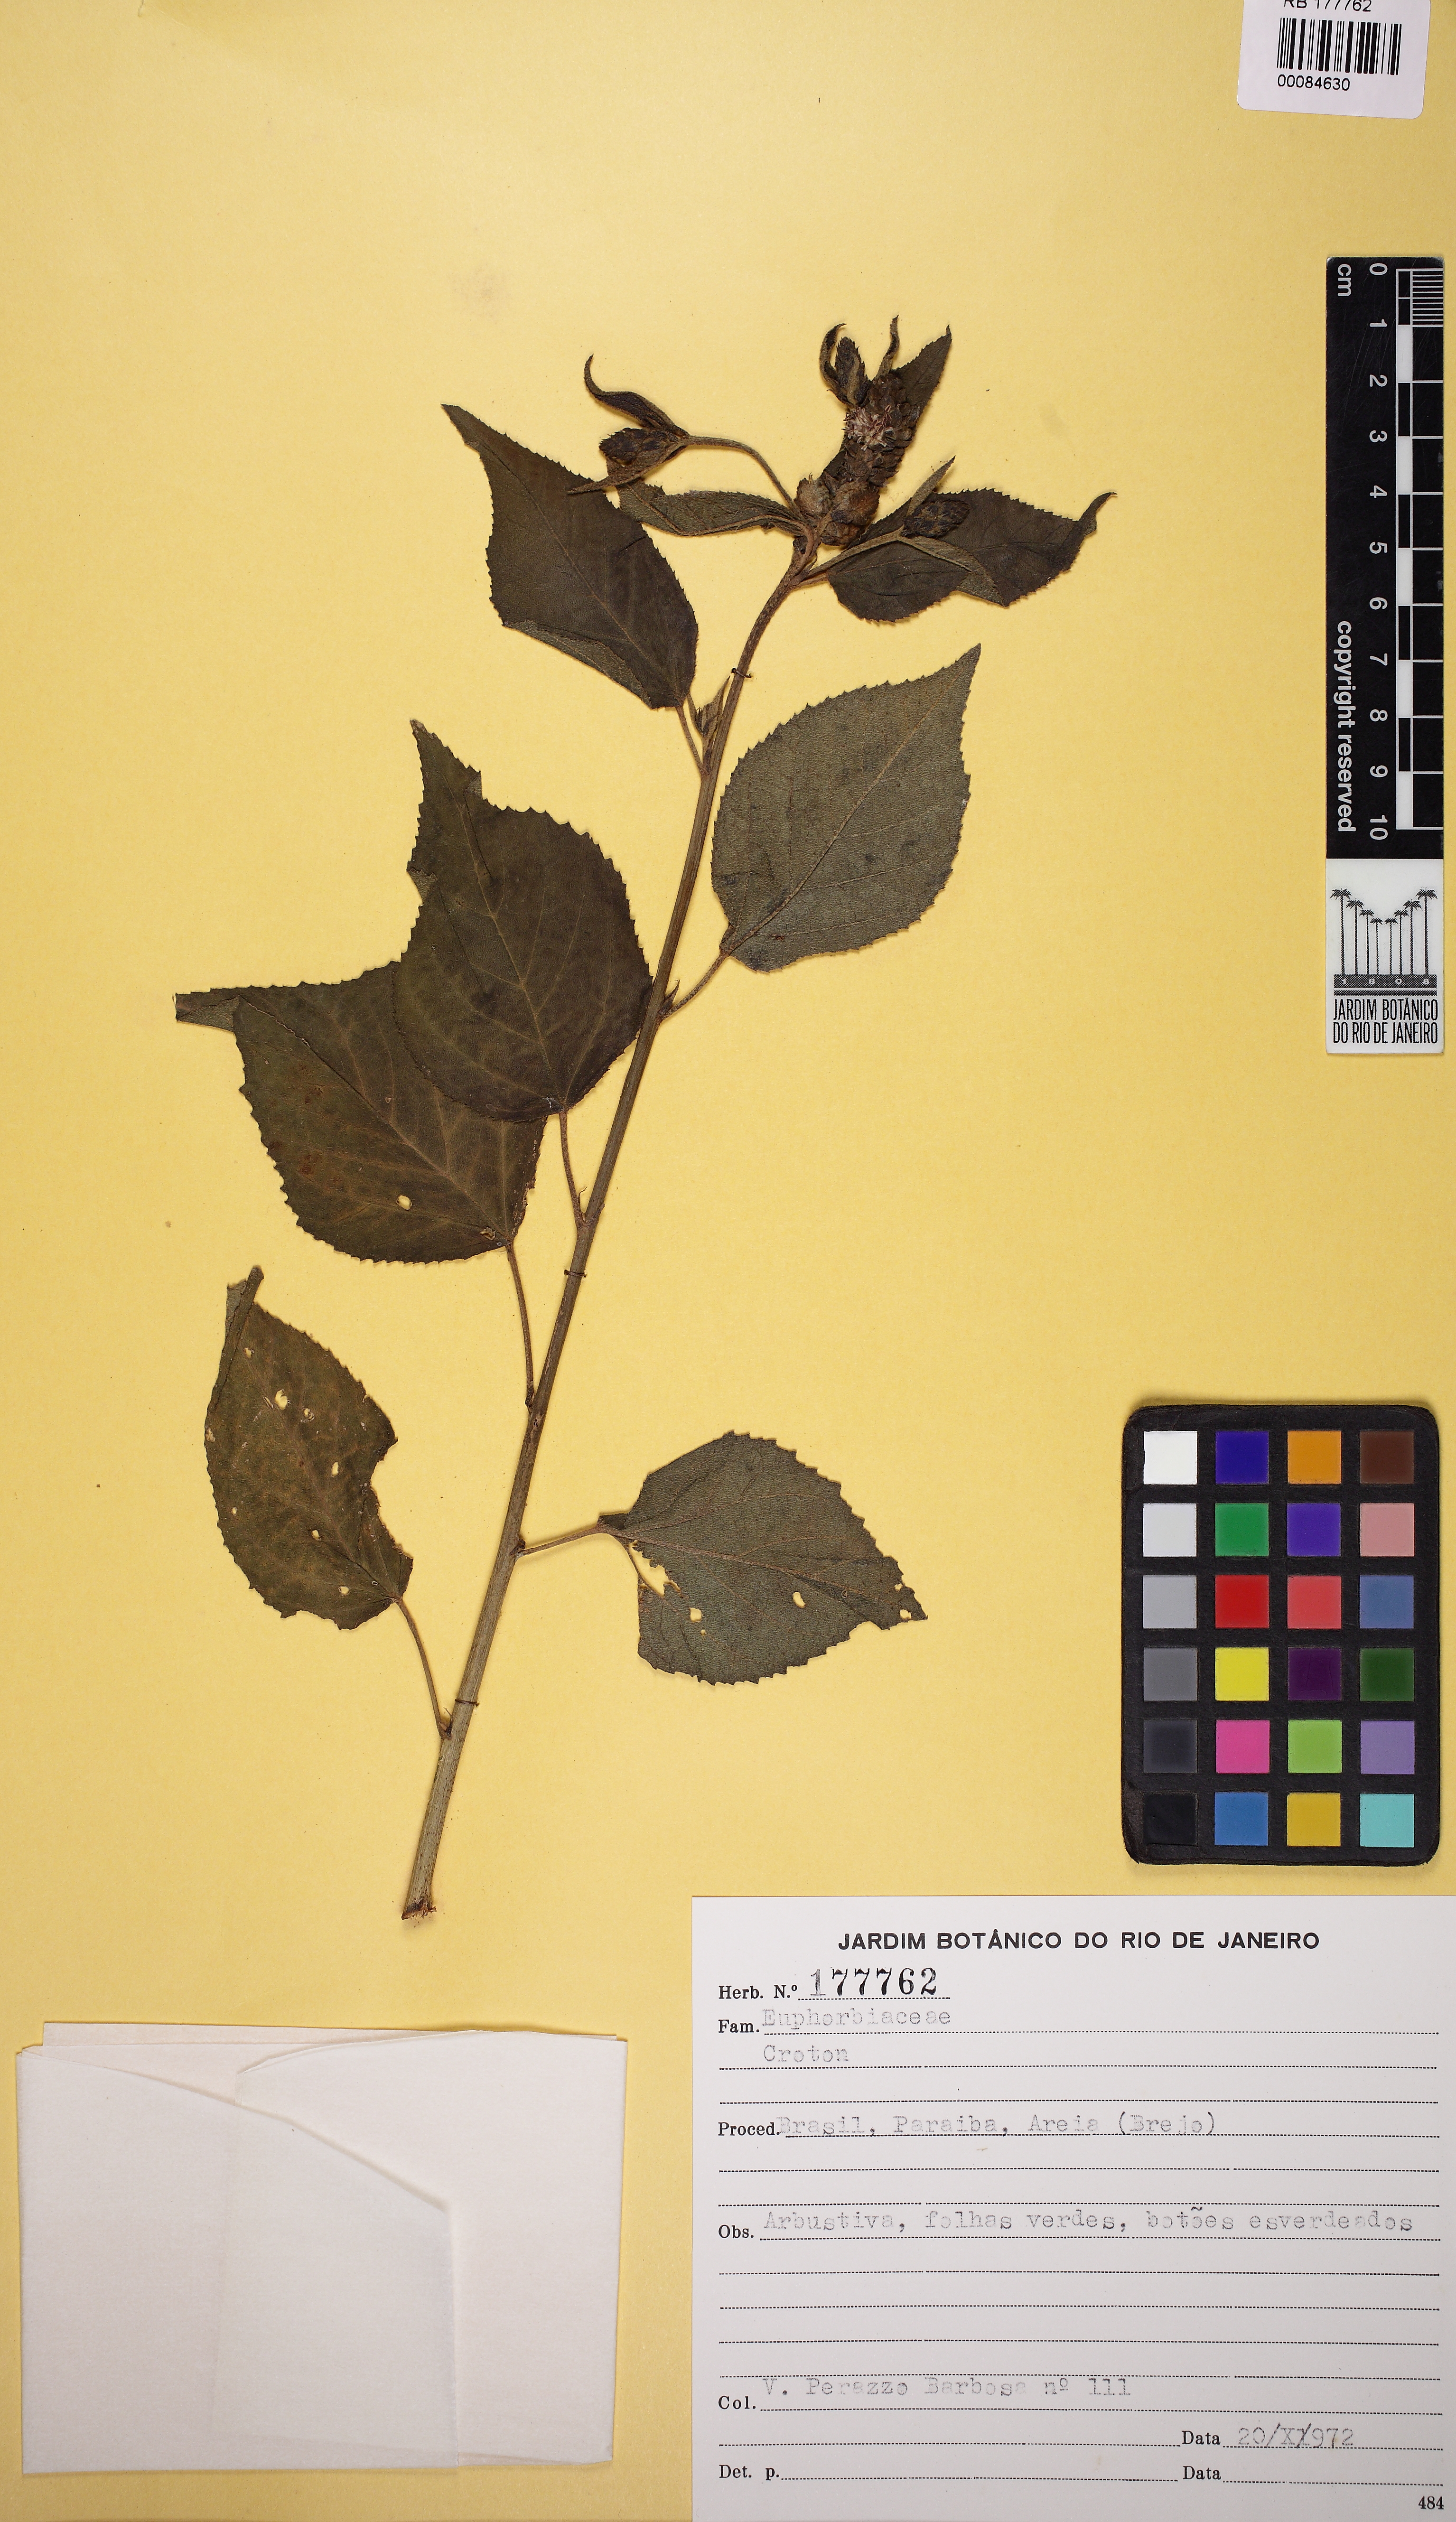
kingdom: Plantae
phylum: Tracheophyta
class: Magnoliopsida
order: Malpighiales
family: Euphorbiaceae
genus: Croton
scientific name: Croton
